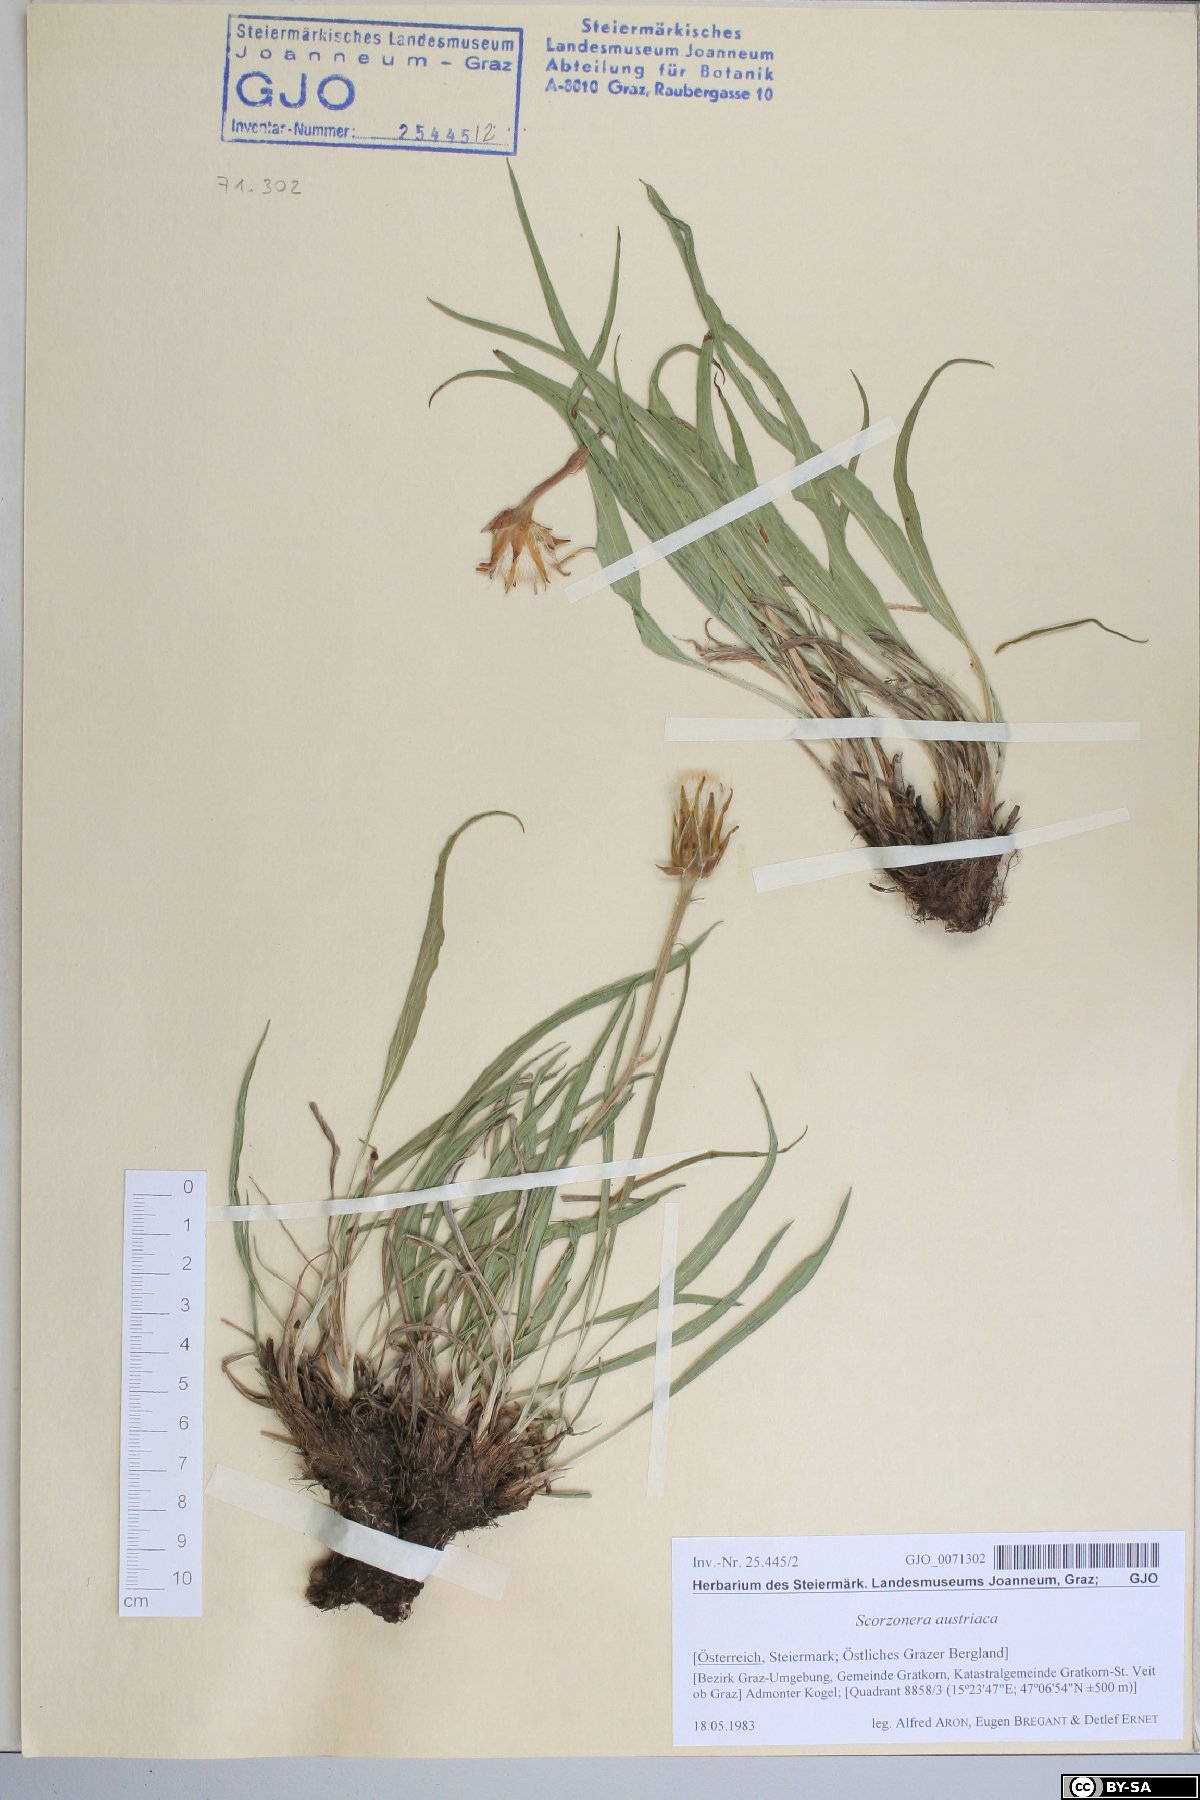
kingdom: Plantae
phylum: Tracheophyta
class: Magnoliopsida
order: Asterales
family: Asteraceae
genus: Takhtajaniantha
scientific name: Takhtajaniantha austriaca
